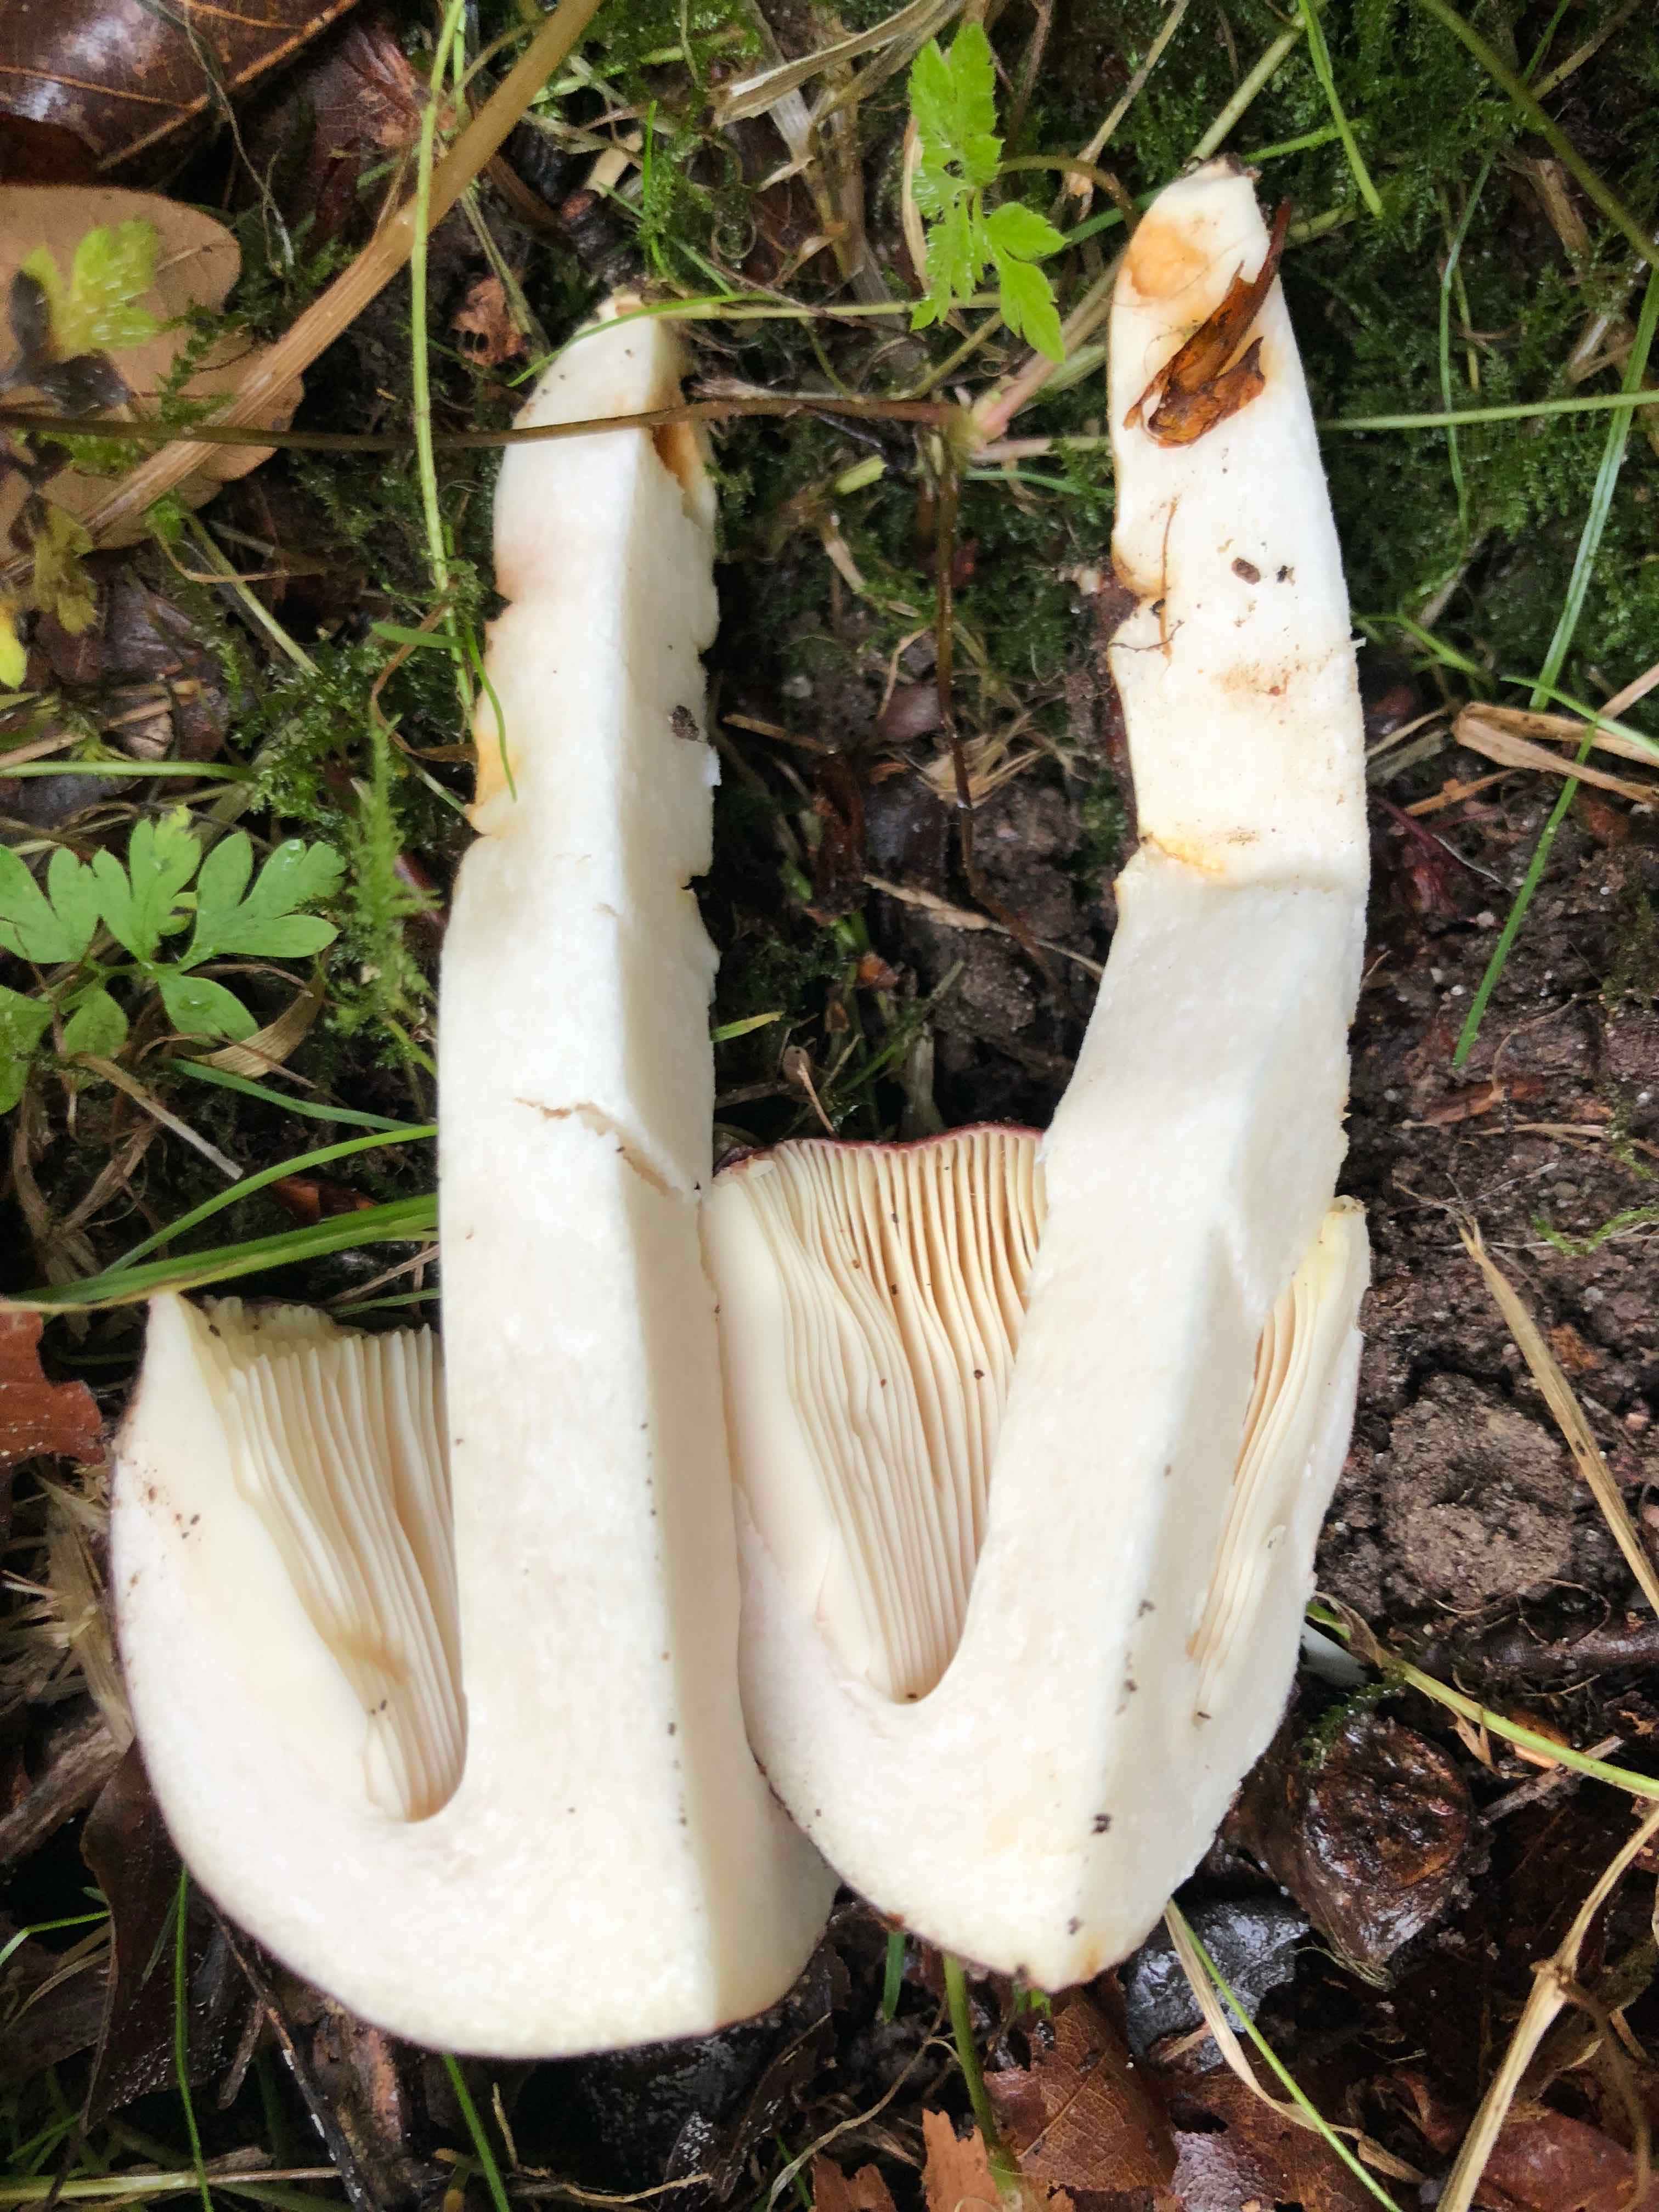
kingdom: Fungi
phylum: Basidiomycota
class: Agaricomycetes
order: Russulales
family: Russulaceae
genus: Russula
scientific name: Russula
